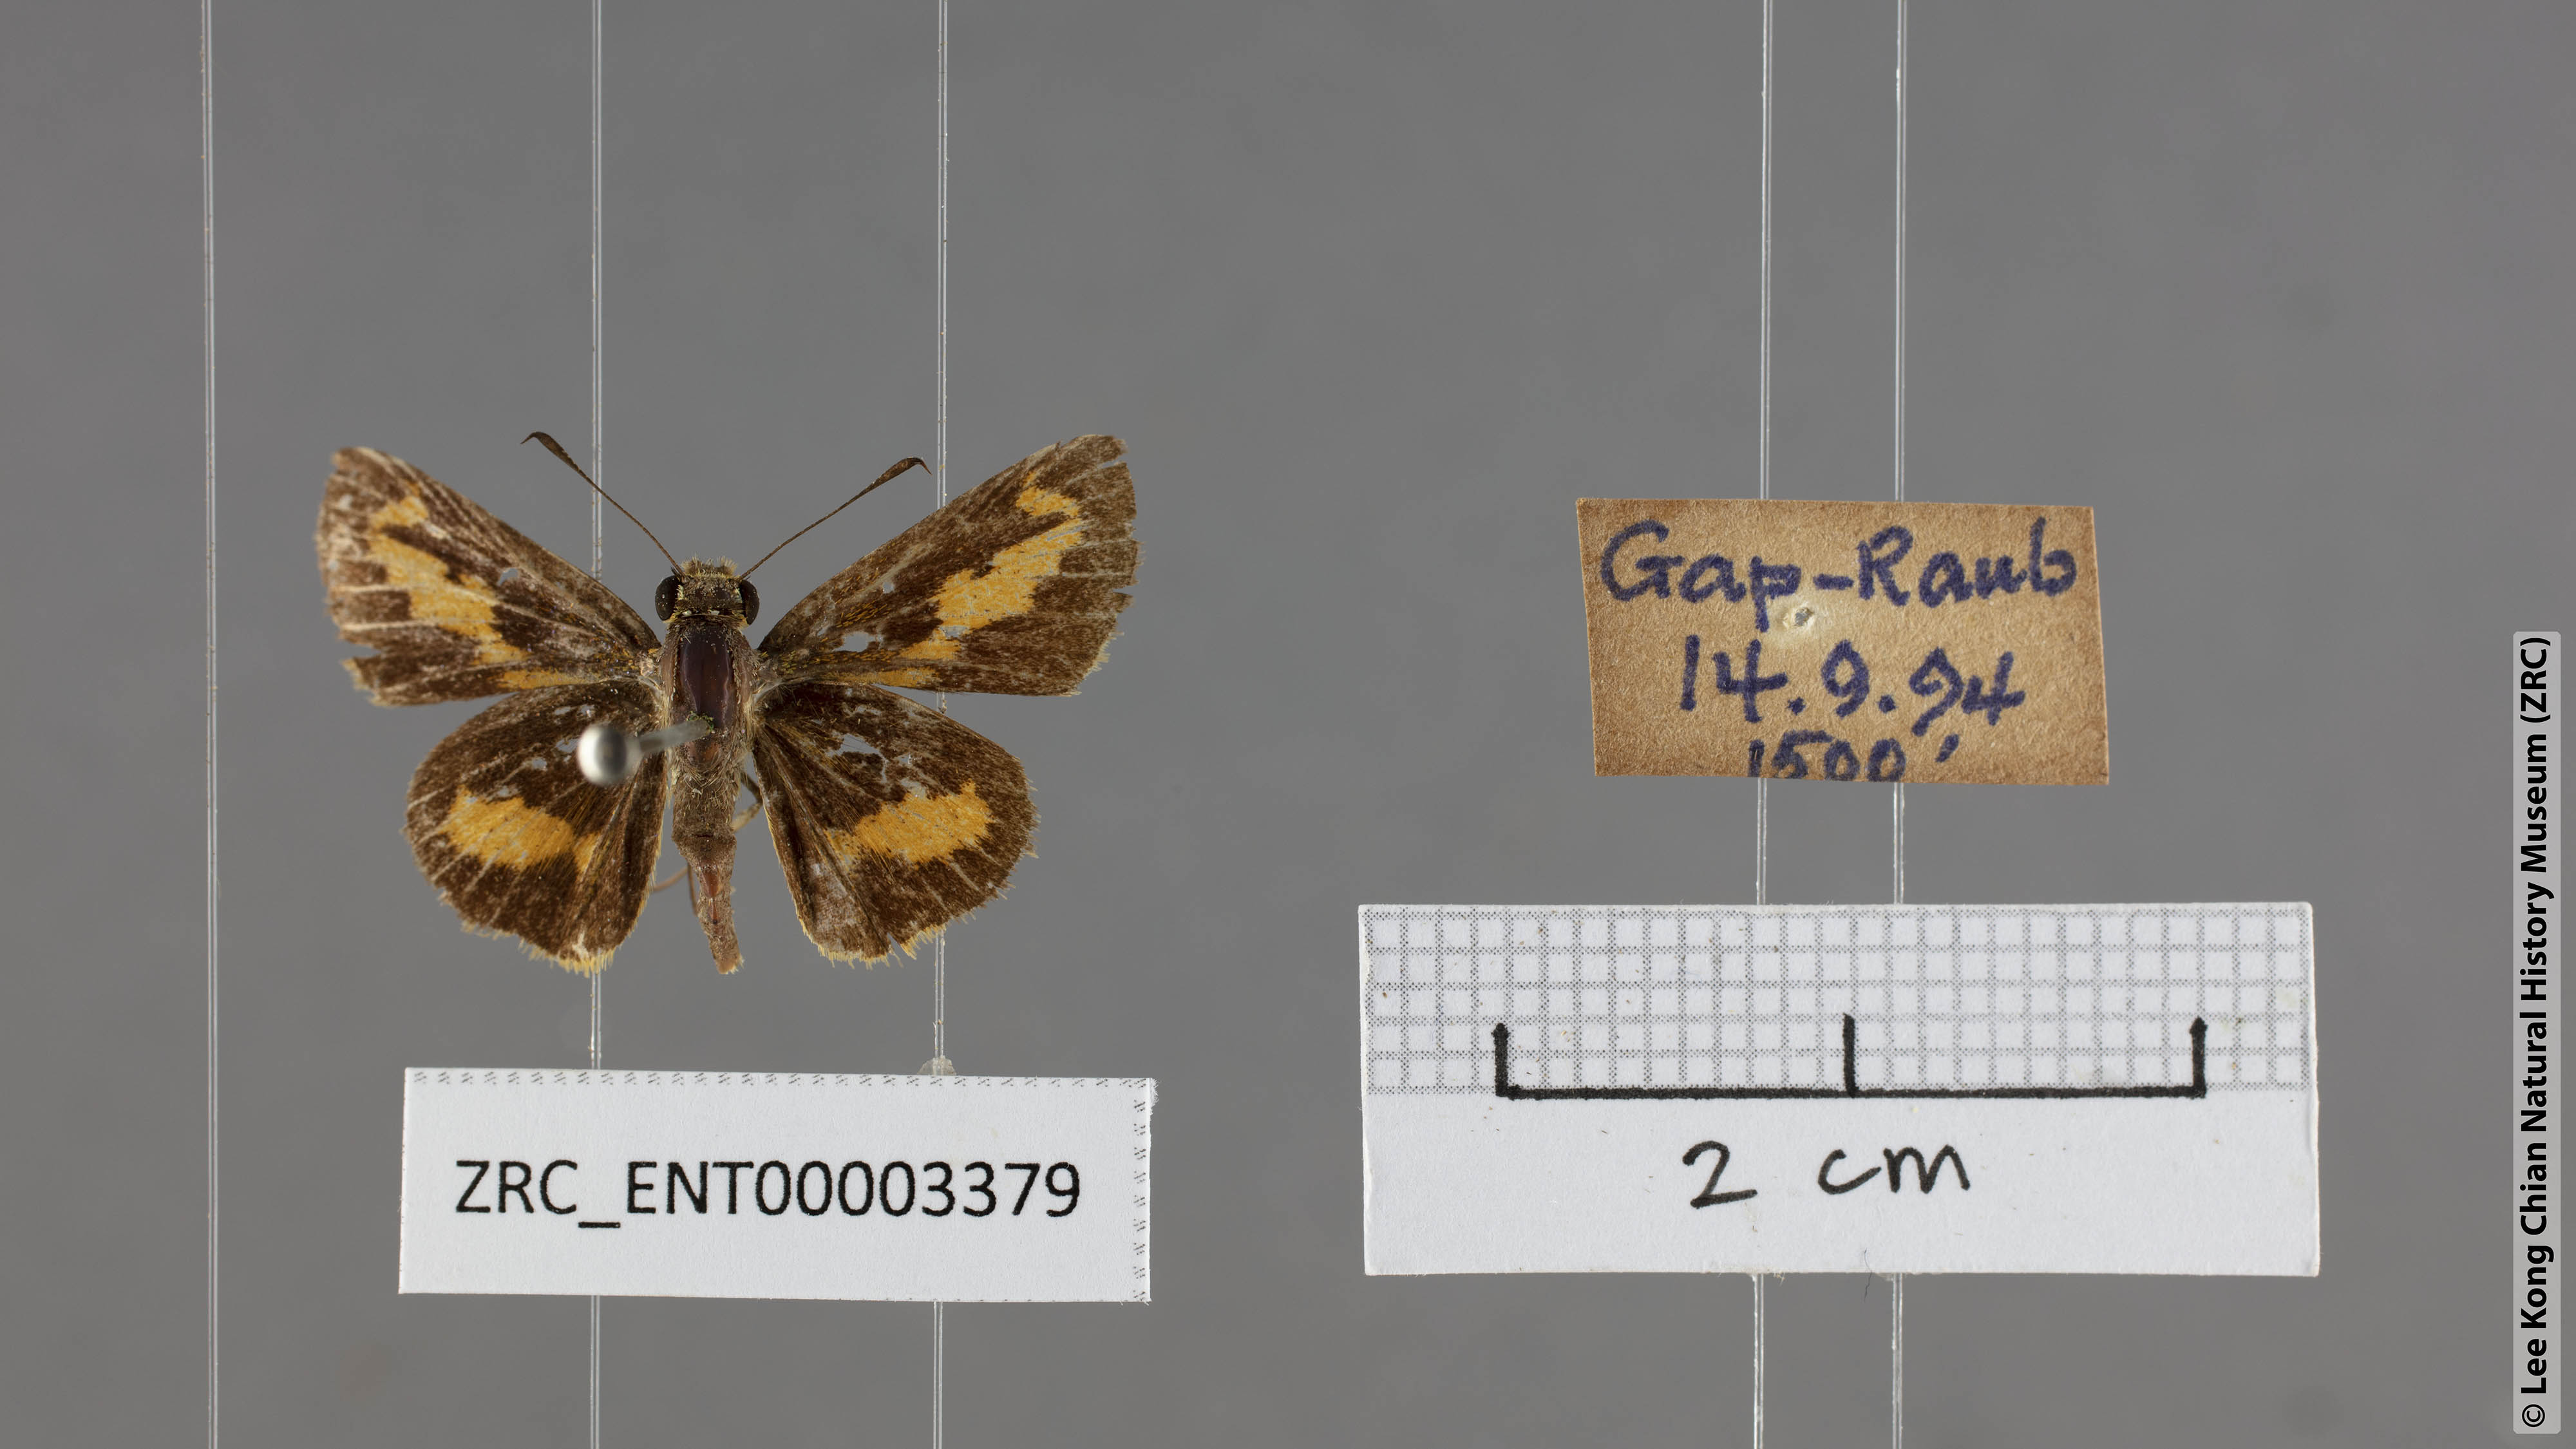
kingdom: Animalia
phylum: Arthropoda
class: Insecta
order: Lepidoptera
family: Hesperiidae
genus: Oriens
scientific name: Oriens paragola
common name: Malay dartlet
